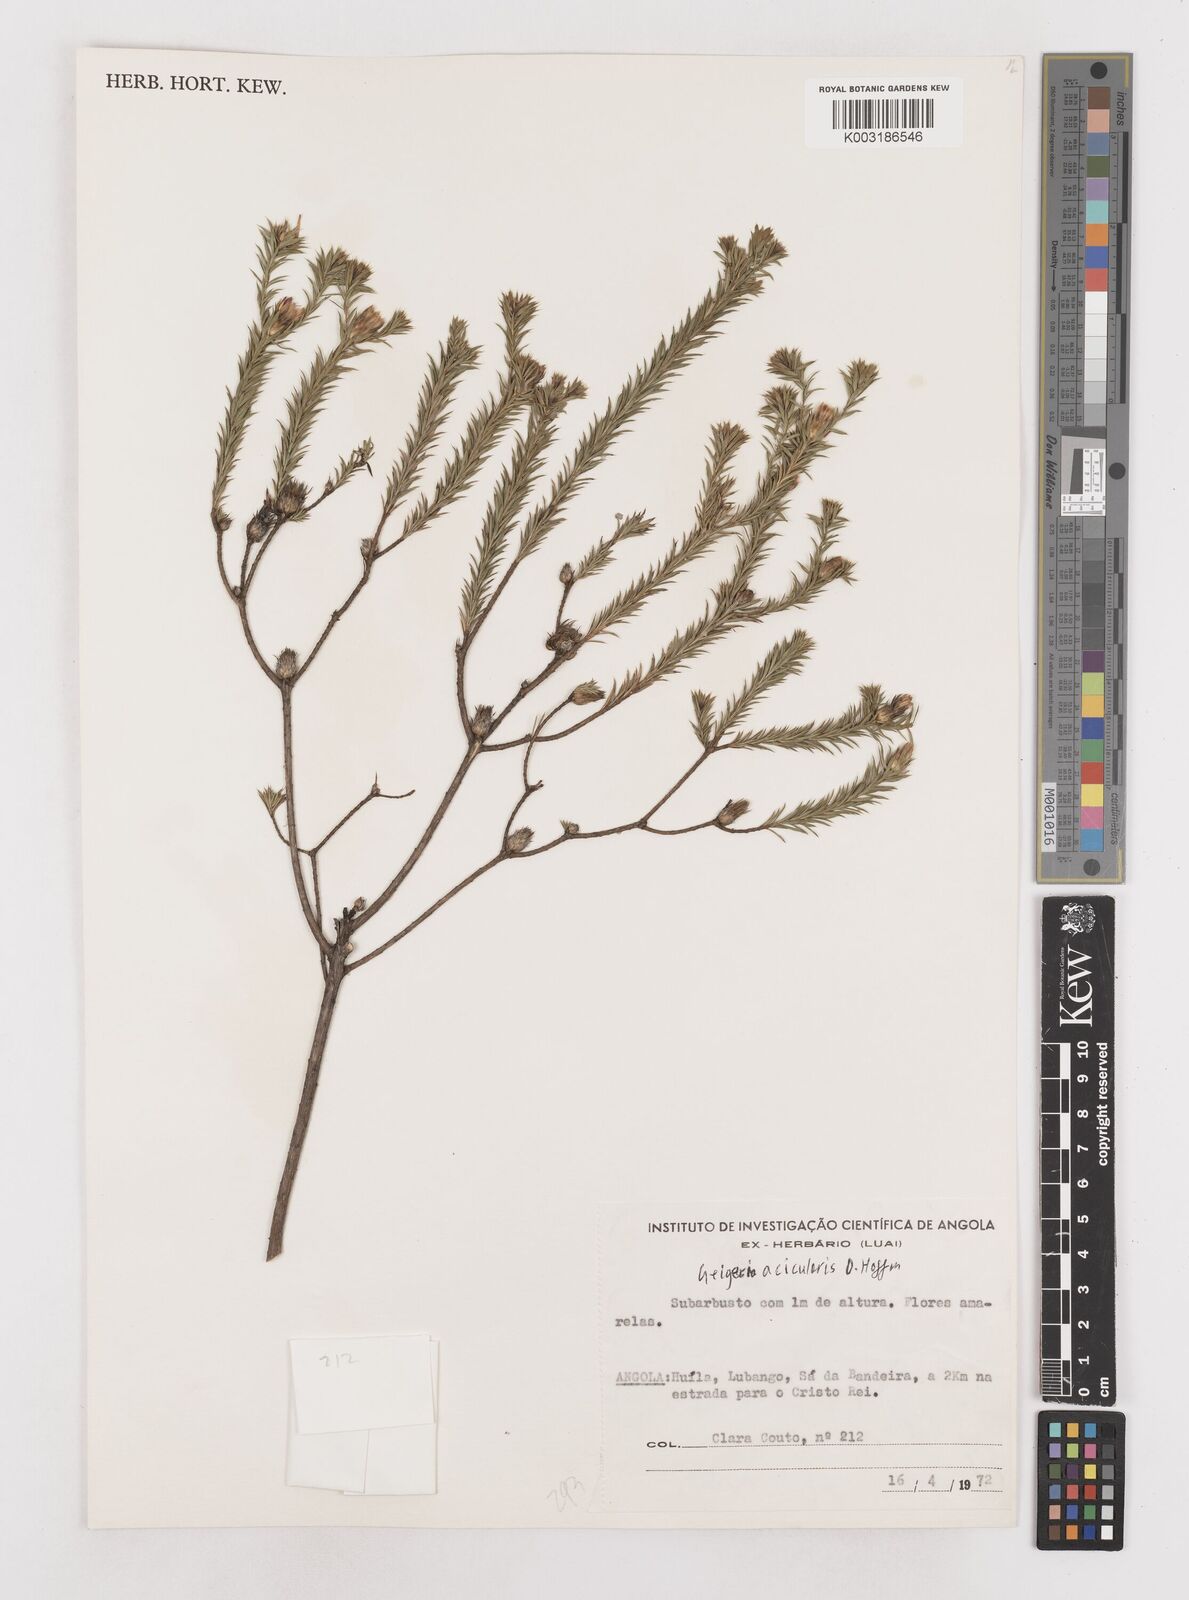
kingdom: Plantae
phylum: Tracheophyta
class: Magnoliopsida
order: Asterales
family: Asteraceae
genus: Geigeria
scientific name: Geigeria acicularis
